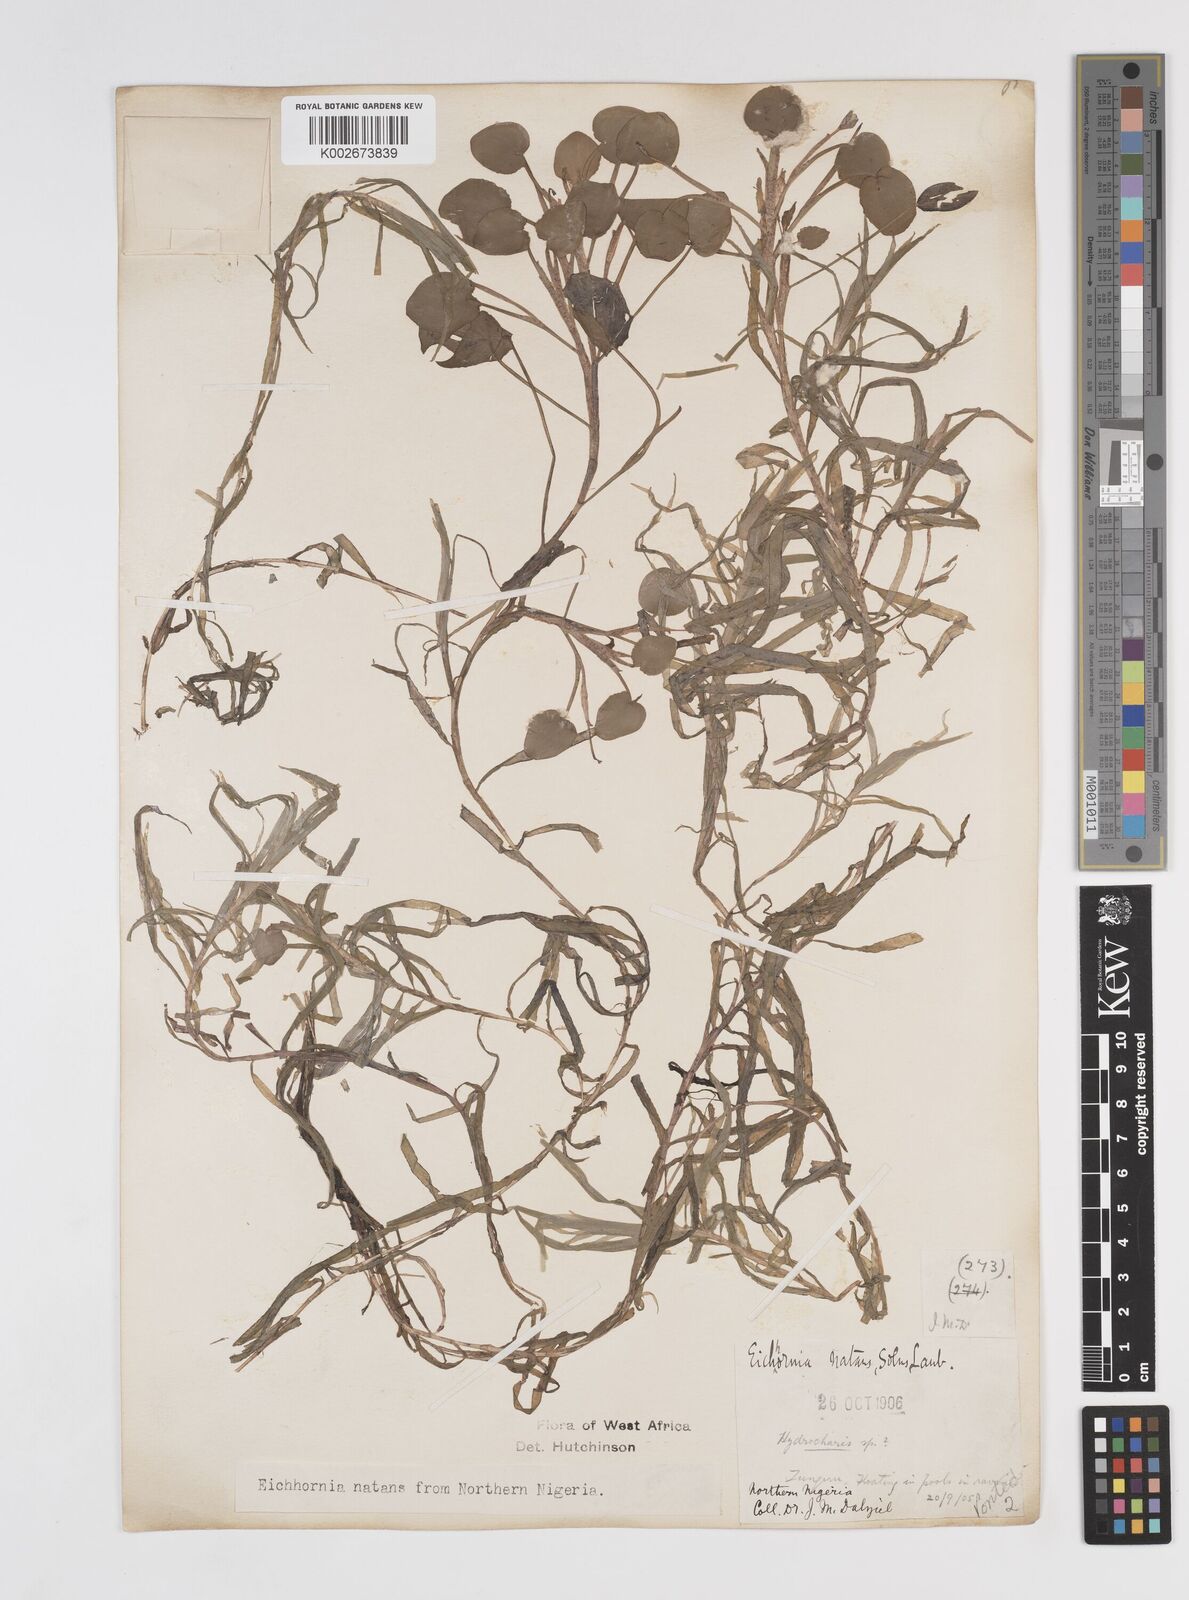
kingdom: Plantae
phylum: Tracheophyta
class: Liliopsida
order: Commelinales
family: Pontederiaceae
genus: Pontederia
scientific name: Pontederia diversifolia
